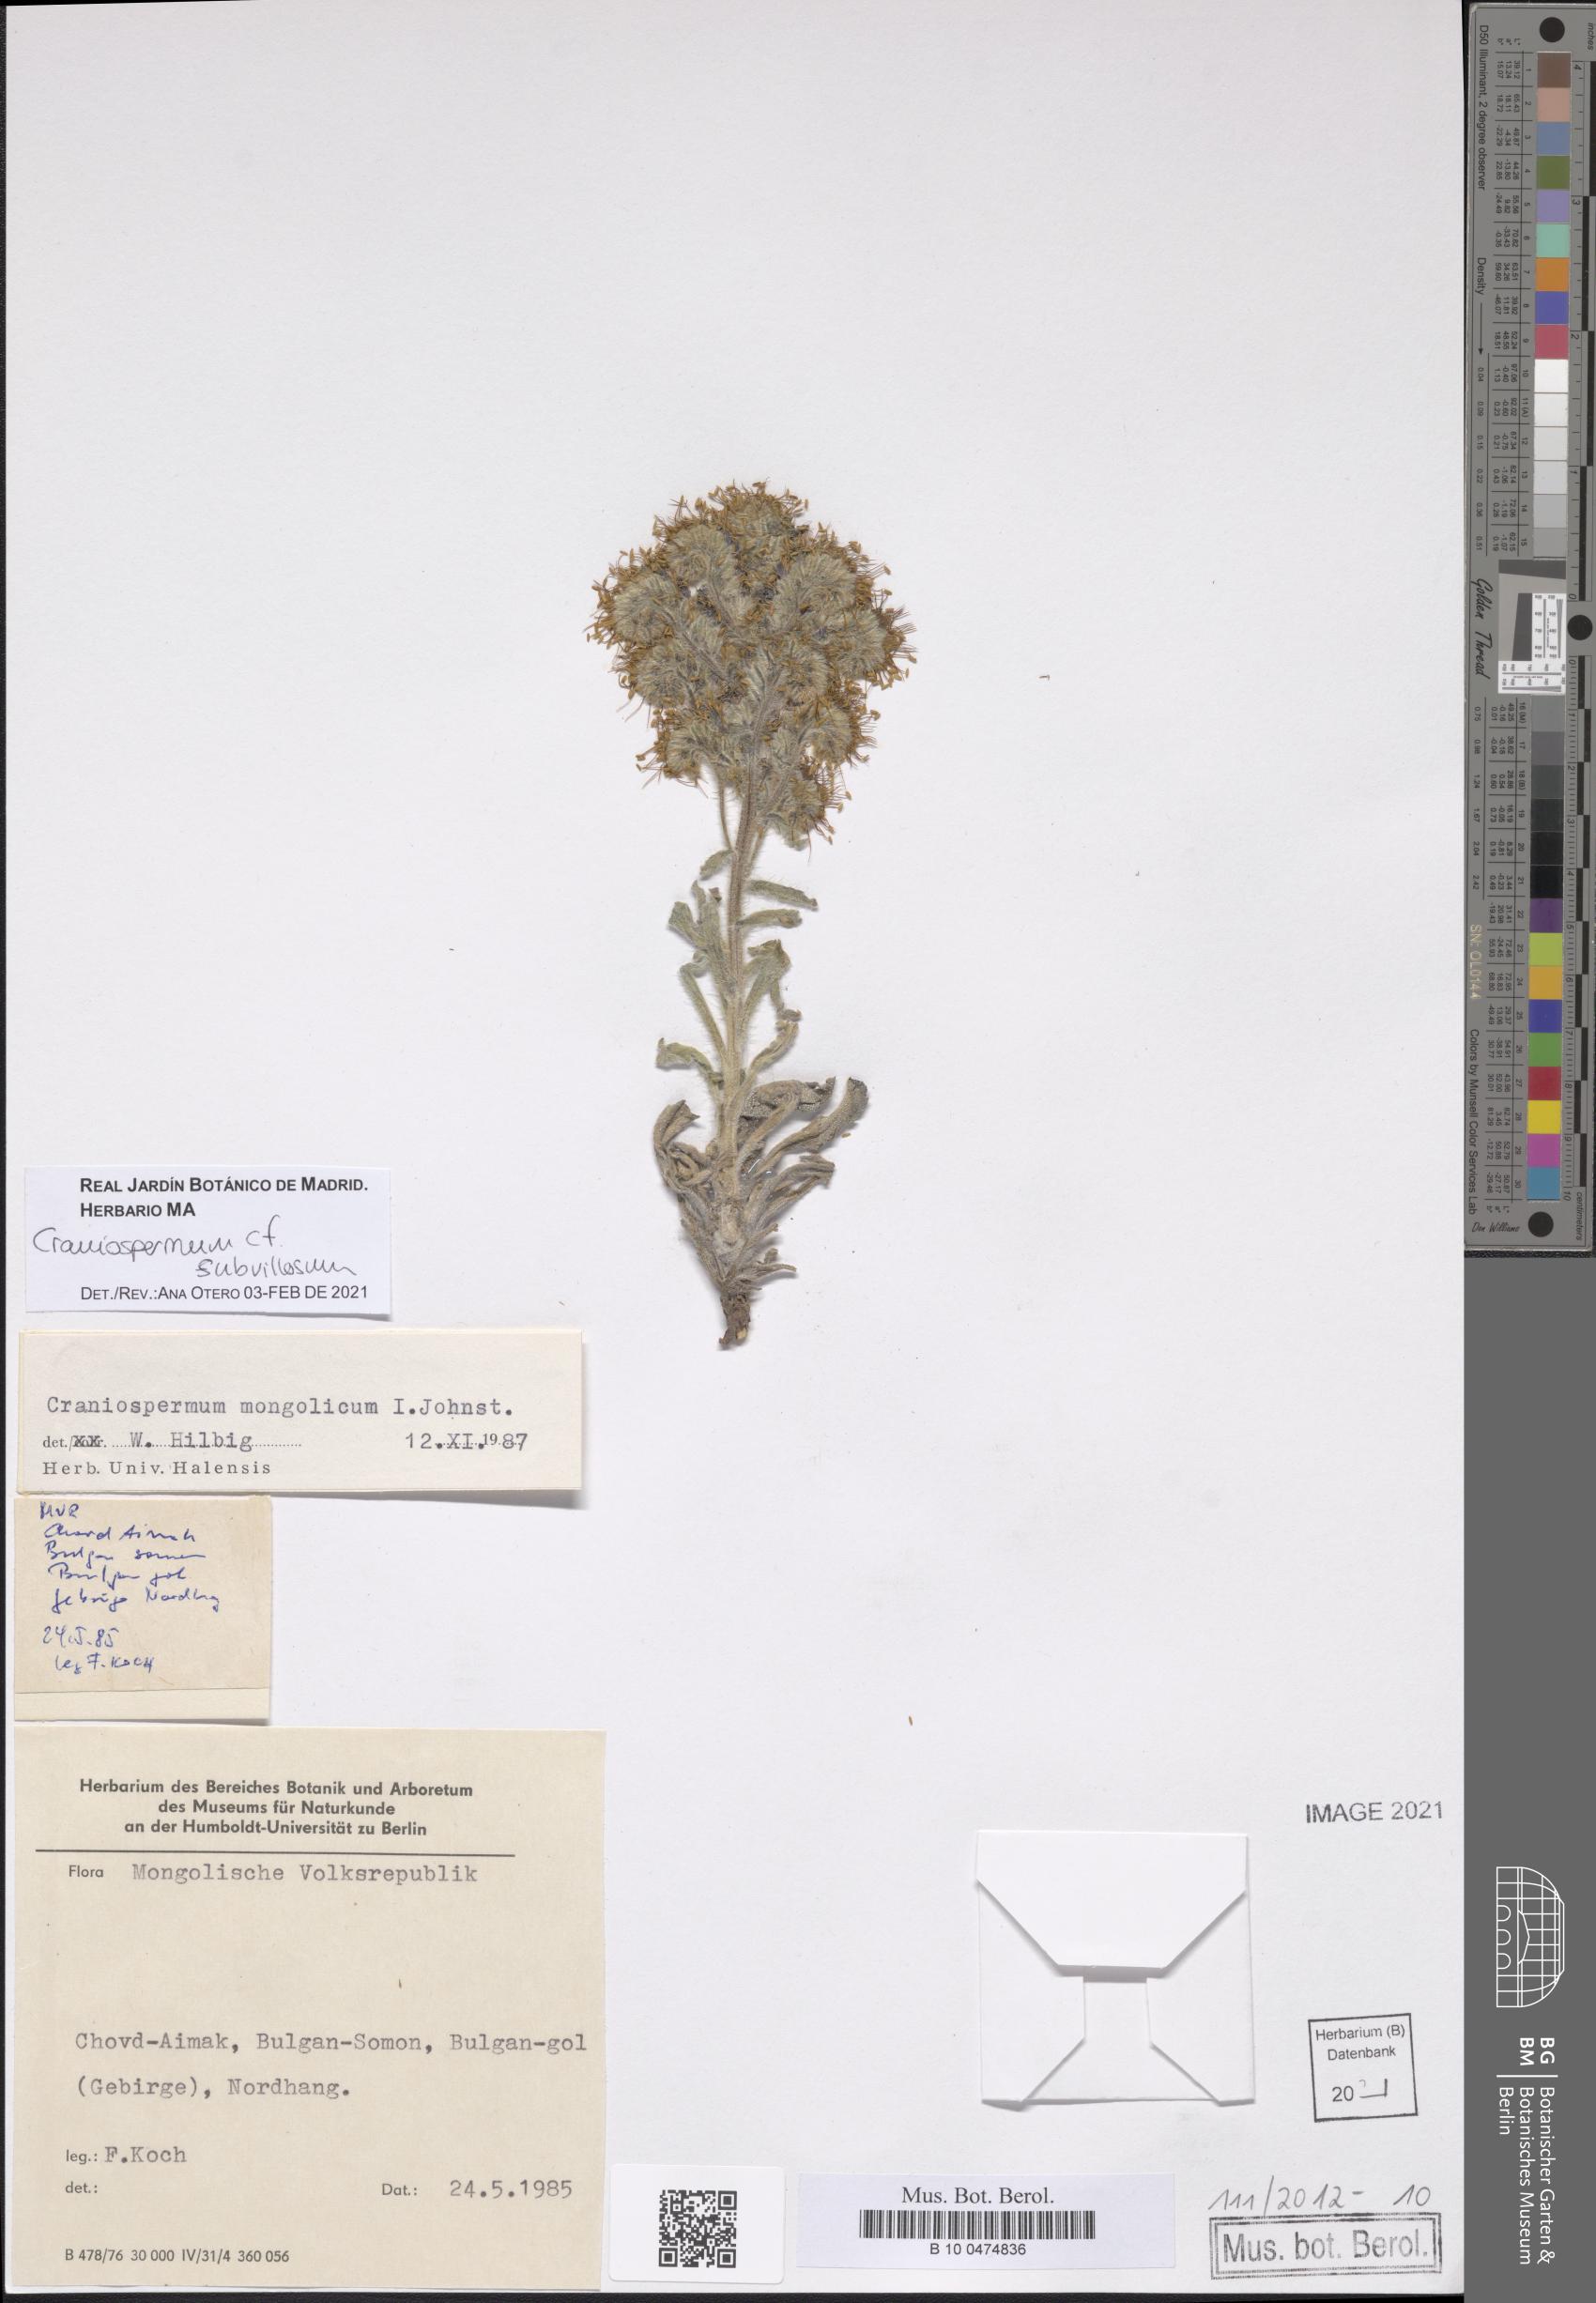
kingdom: Plantae
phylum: Tracheophyta
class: Magnoliopsida
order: Boraginales
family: Boraginaceae
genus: Craniospermum
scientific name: Craniospermum subvillosum
